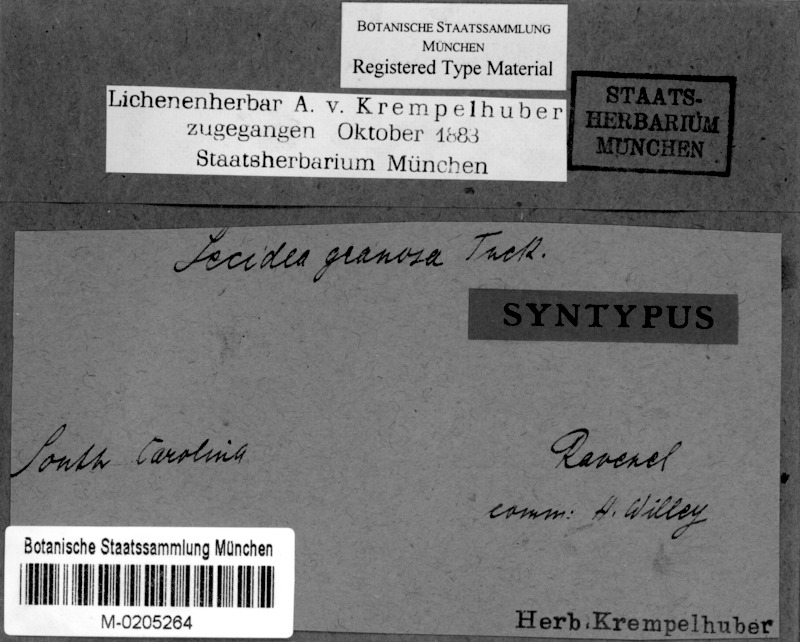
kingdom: Fungi
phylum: Ascomycota
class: Lecanoromycetes
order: Lecanorales
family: Ramalinaceae
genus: Bacidia
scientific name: Bacidia granosa
